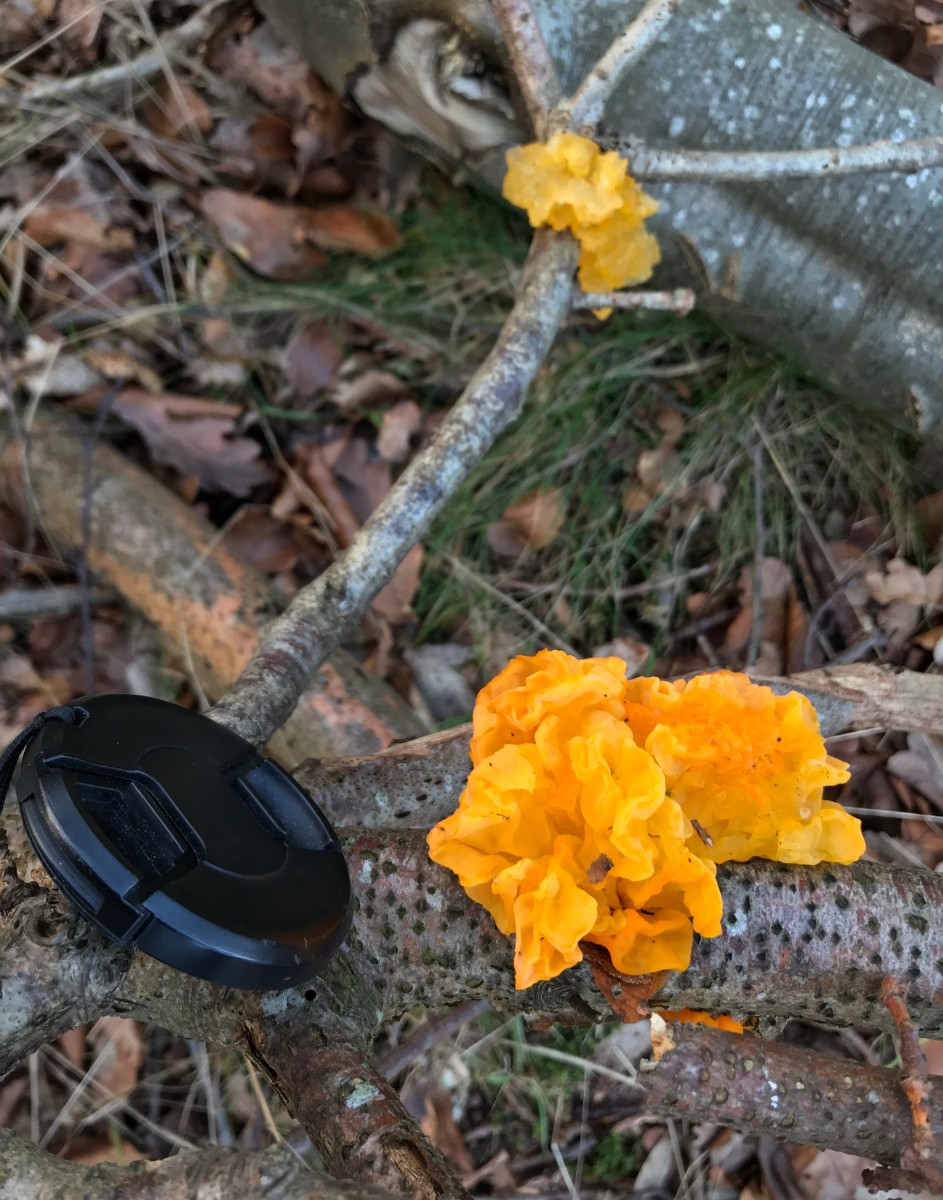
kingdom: Fungi
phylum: Basidiomycota
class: Tremellomycetes
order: Tremellales
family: Tremellaceae
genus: Tremella
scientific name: Tremella mesenterica
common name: gul bævresvamp
